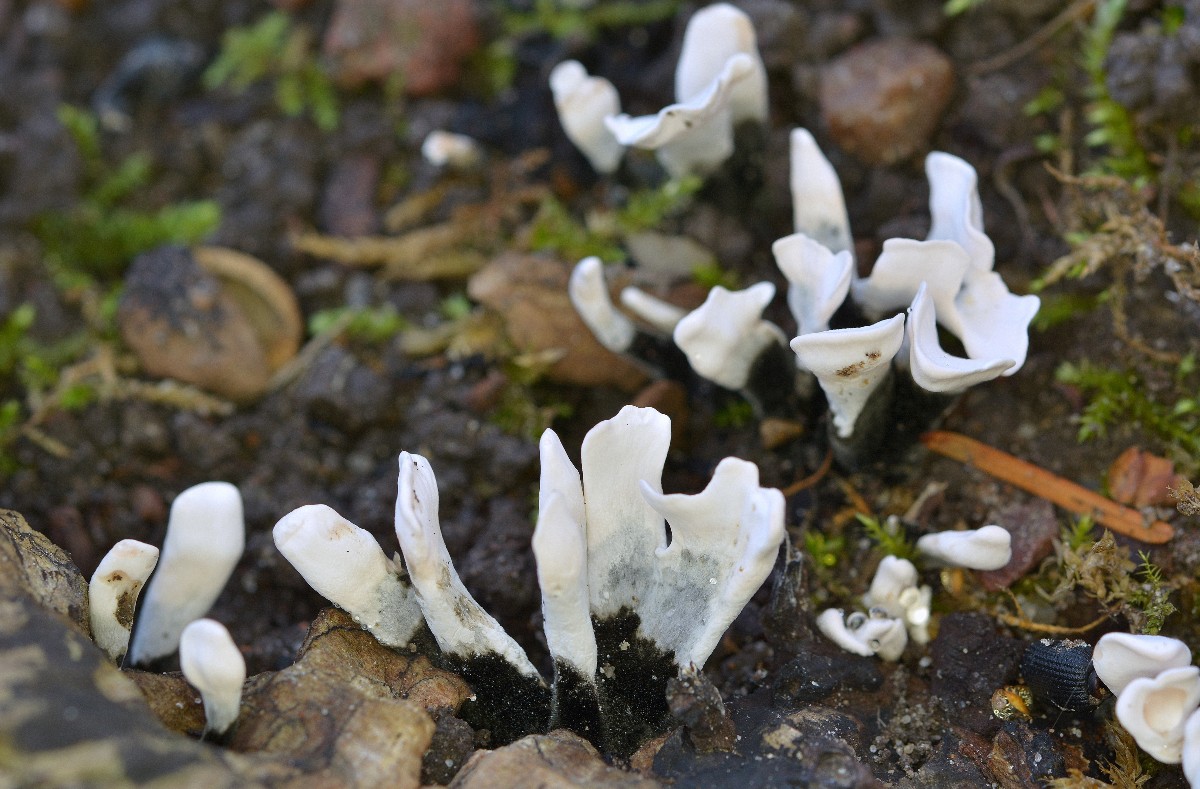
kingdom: Fungi
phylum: Ascomycota
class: Sordariomycetes
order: Xylariales
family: Xylariaceae
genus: Xylaria
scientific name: Xylaria hypoxylon
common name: grenet stødsvamp
